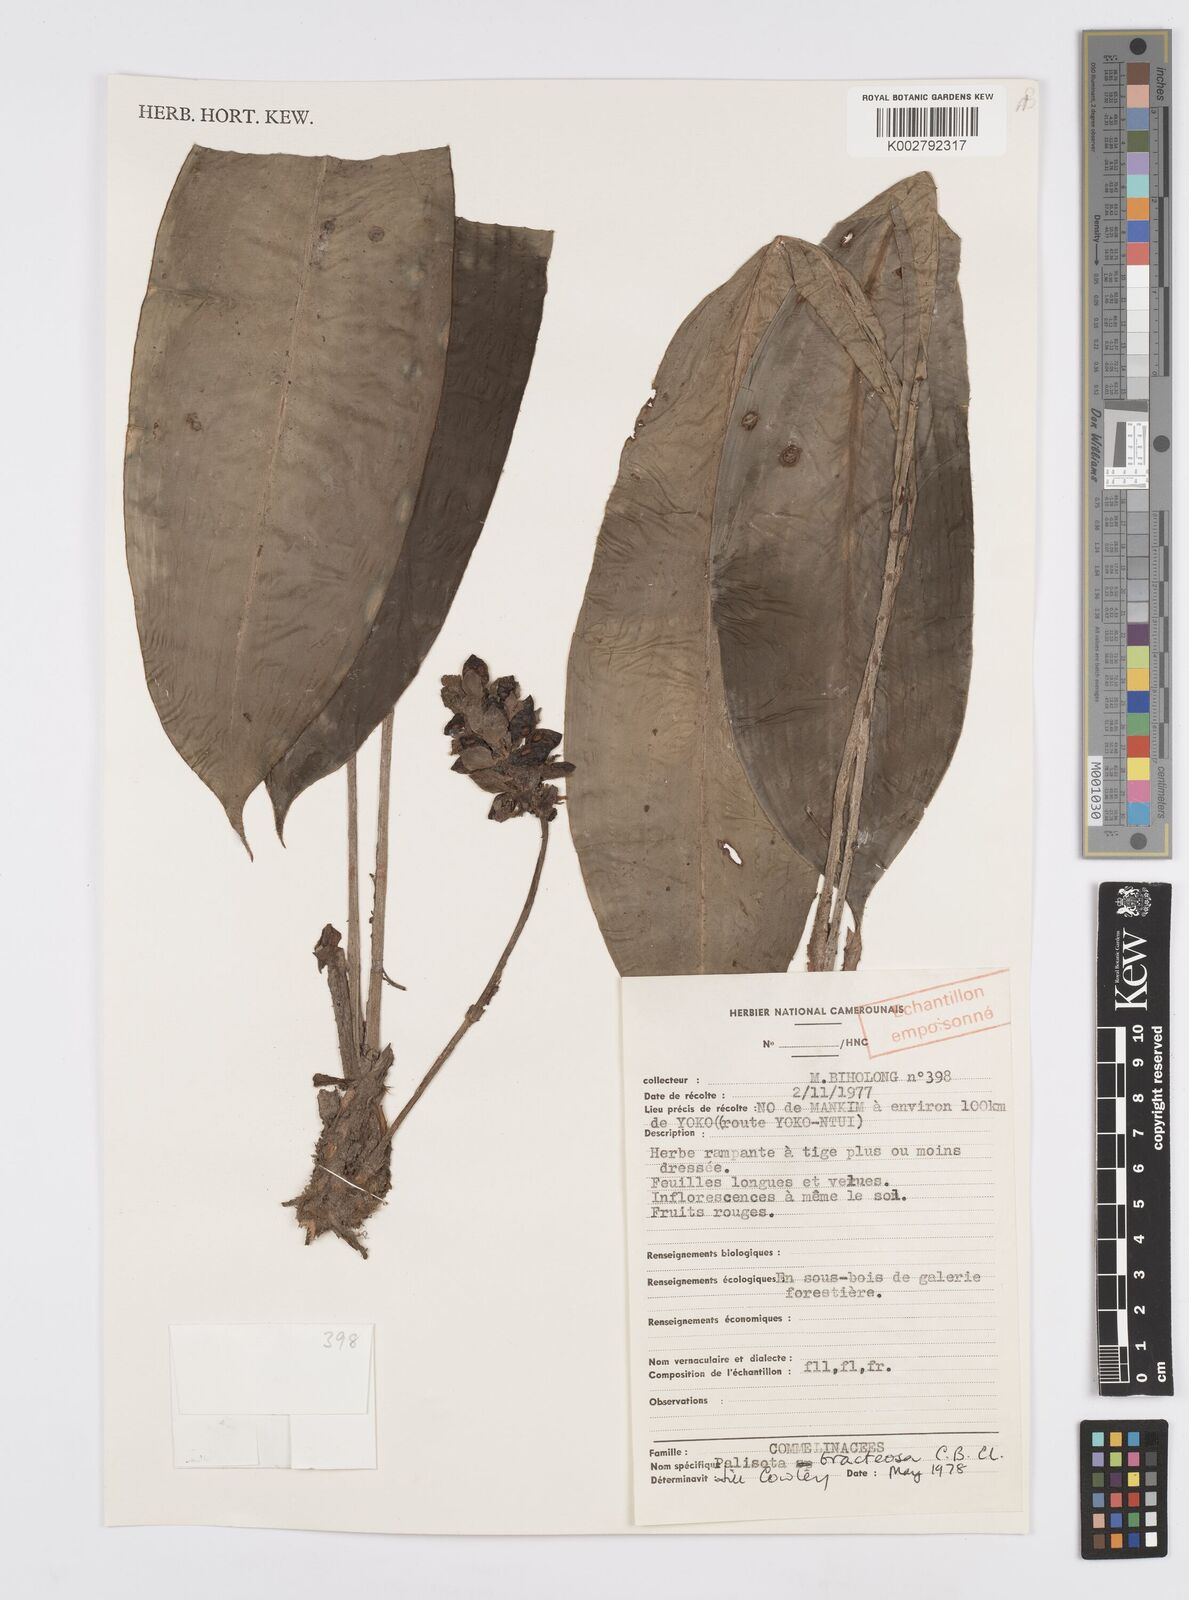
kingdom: Plantae
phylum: Tracheophyta
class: Liliopsida
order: Commelinales
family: Commelinaceae
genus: Palisota
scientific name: Palisota bracteosa
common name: Palisota
